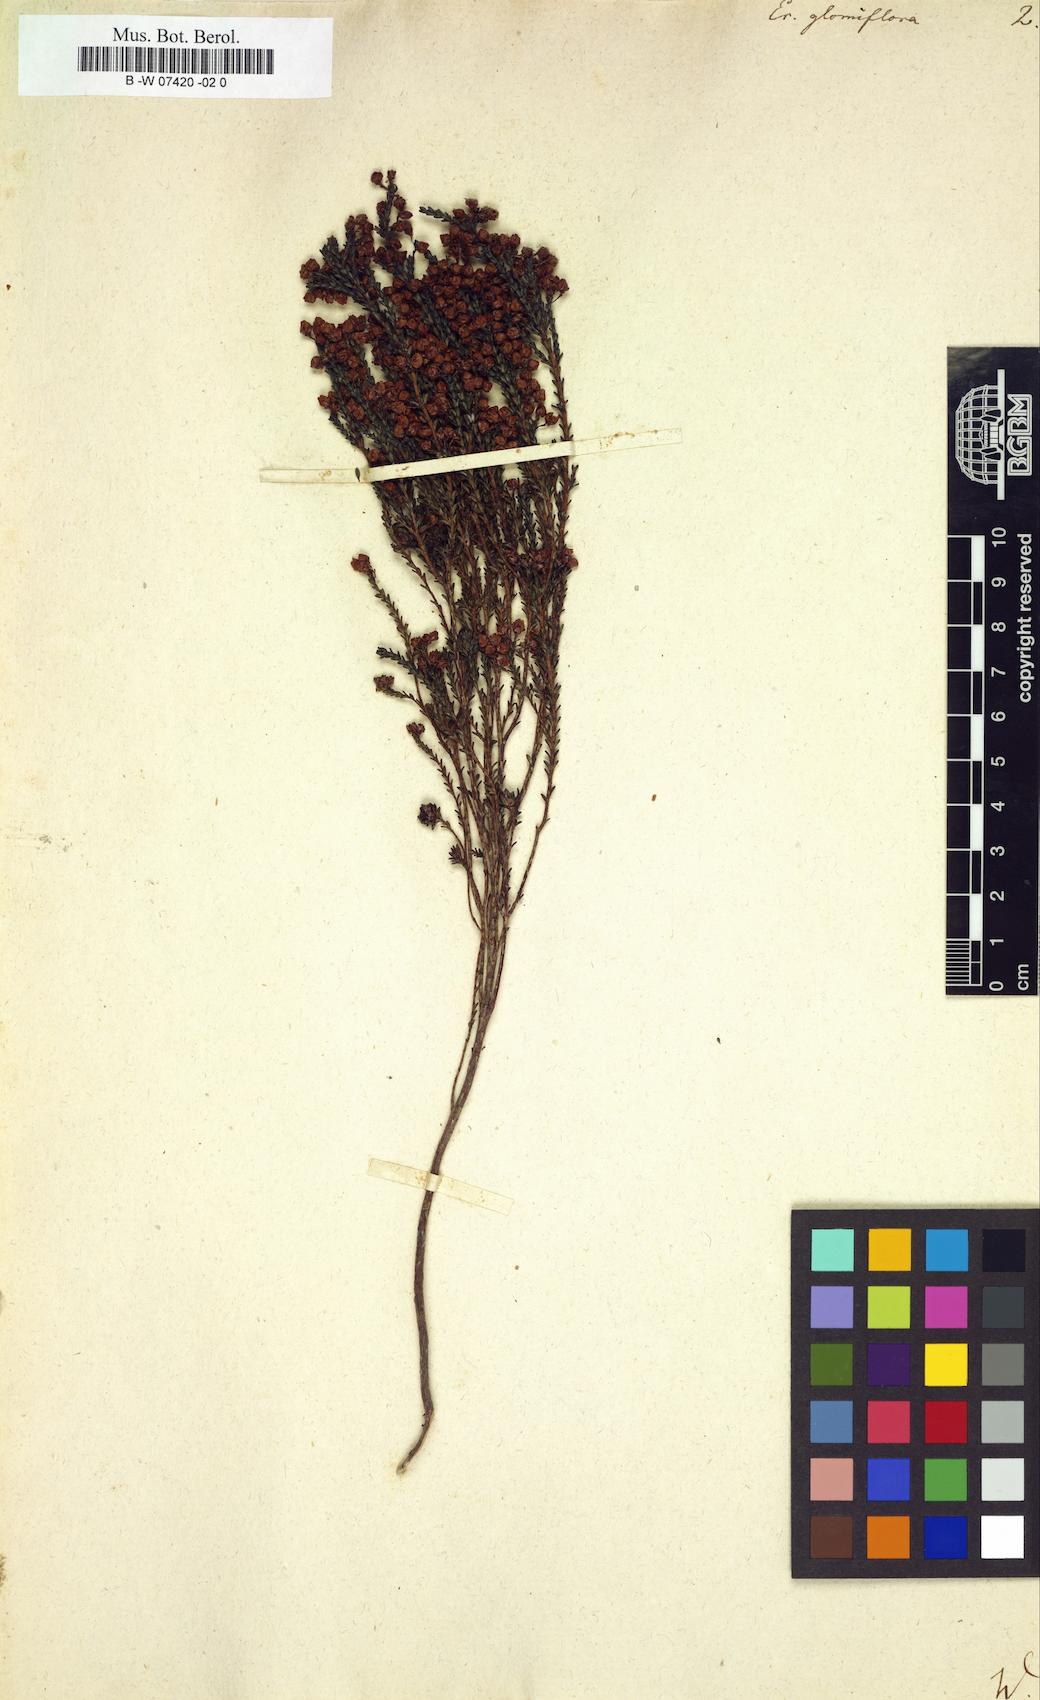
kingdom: Plantae
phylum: Tracheophyta
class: Magnoliopsida
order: Ericales
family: Ericaceae
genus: Erica
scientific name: Erica glomiflora
